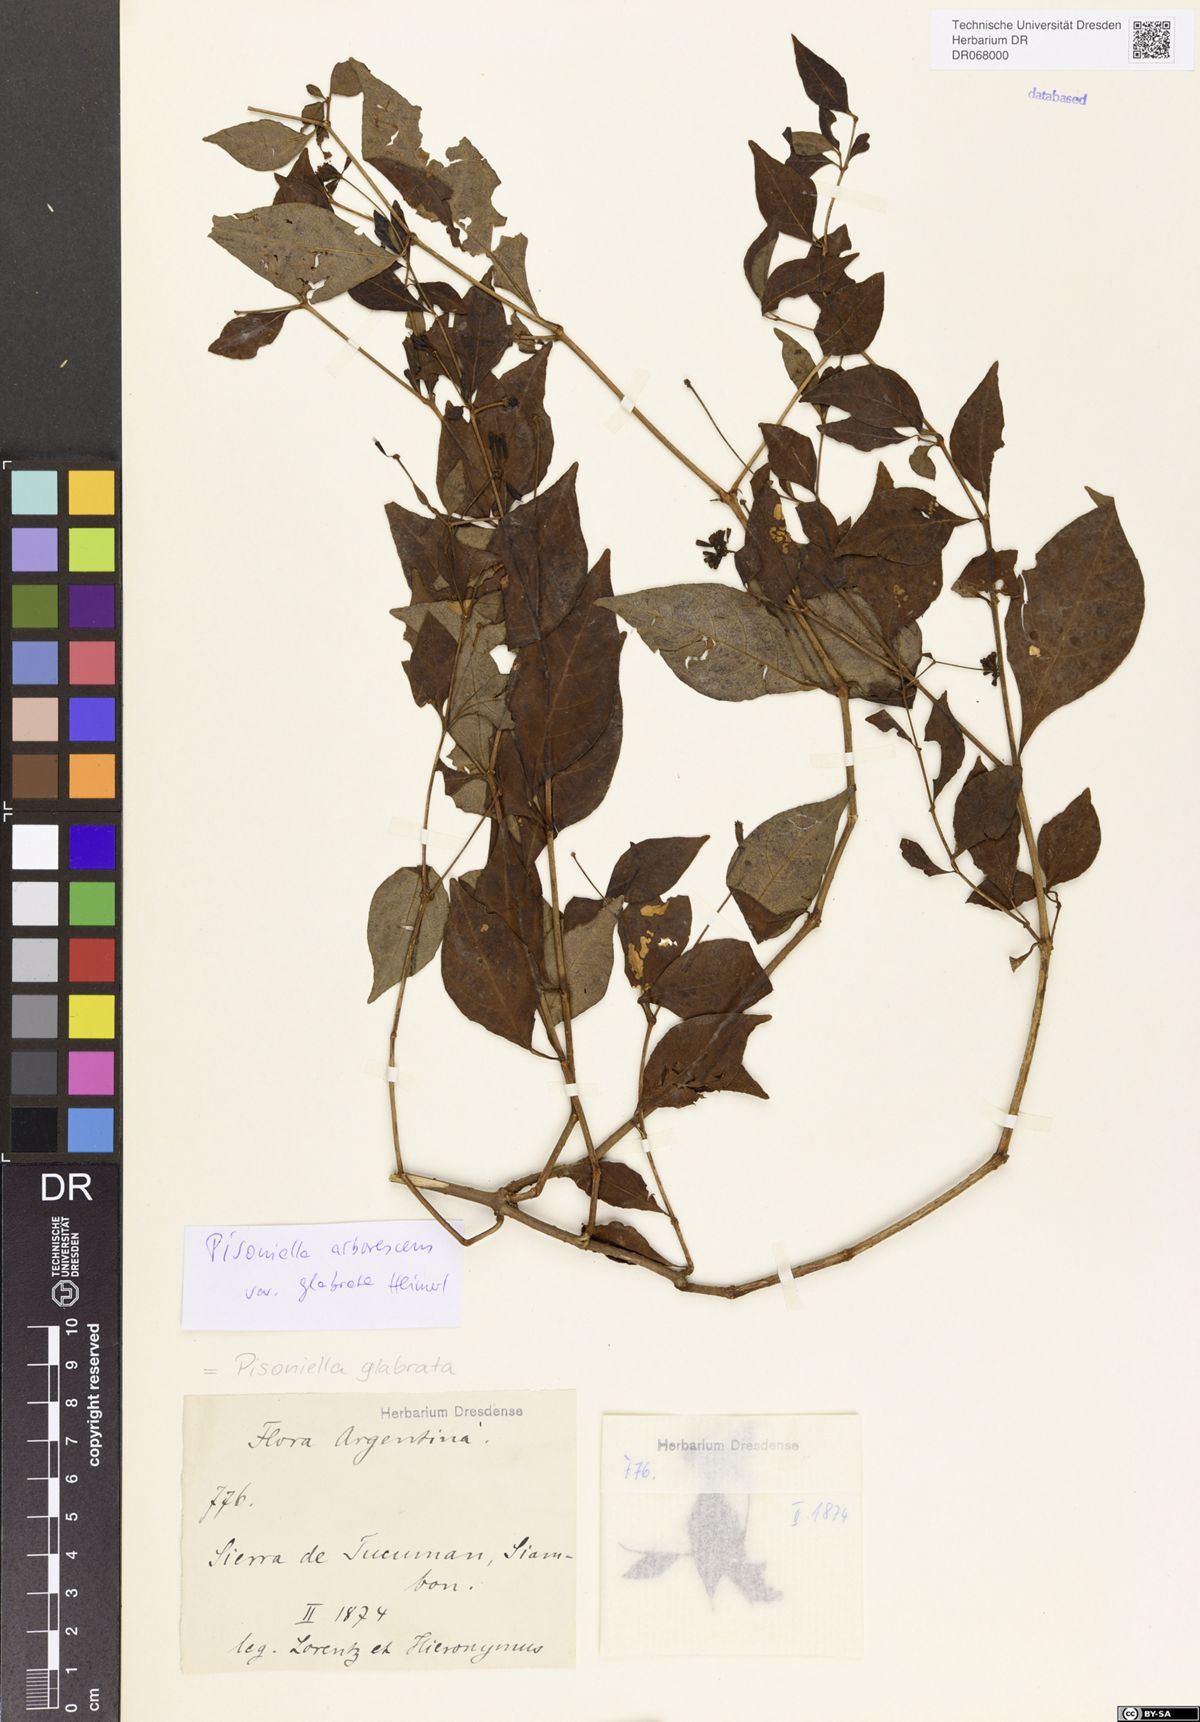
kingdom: Plantae
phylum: Tracheophyta
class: Magnoliopsida
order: Caryophyllales
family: Nyctaginaceae
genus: Pisoniella
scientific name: Pisoniella glabrata
